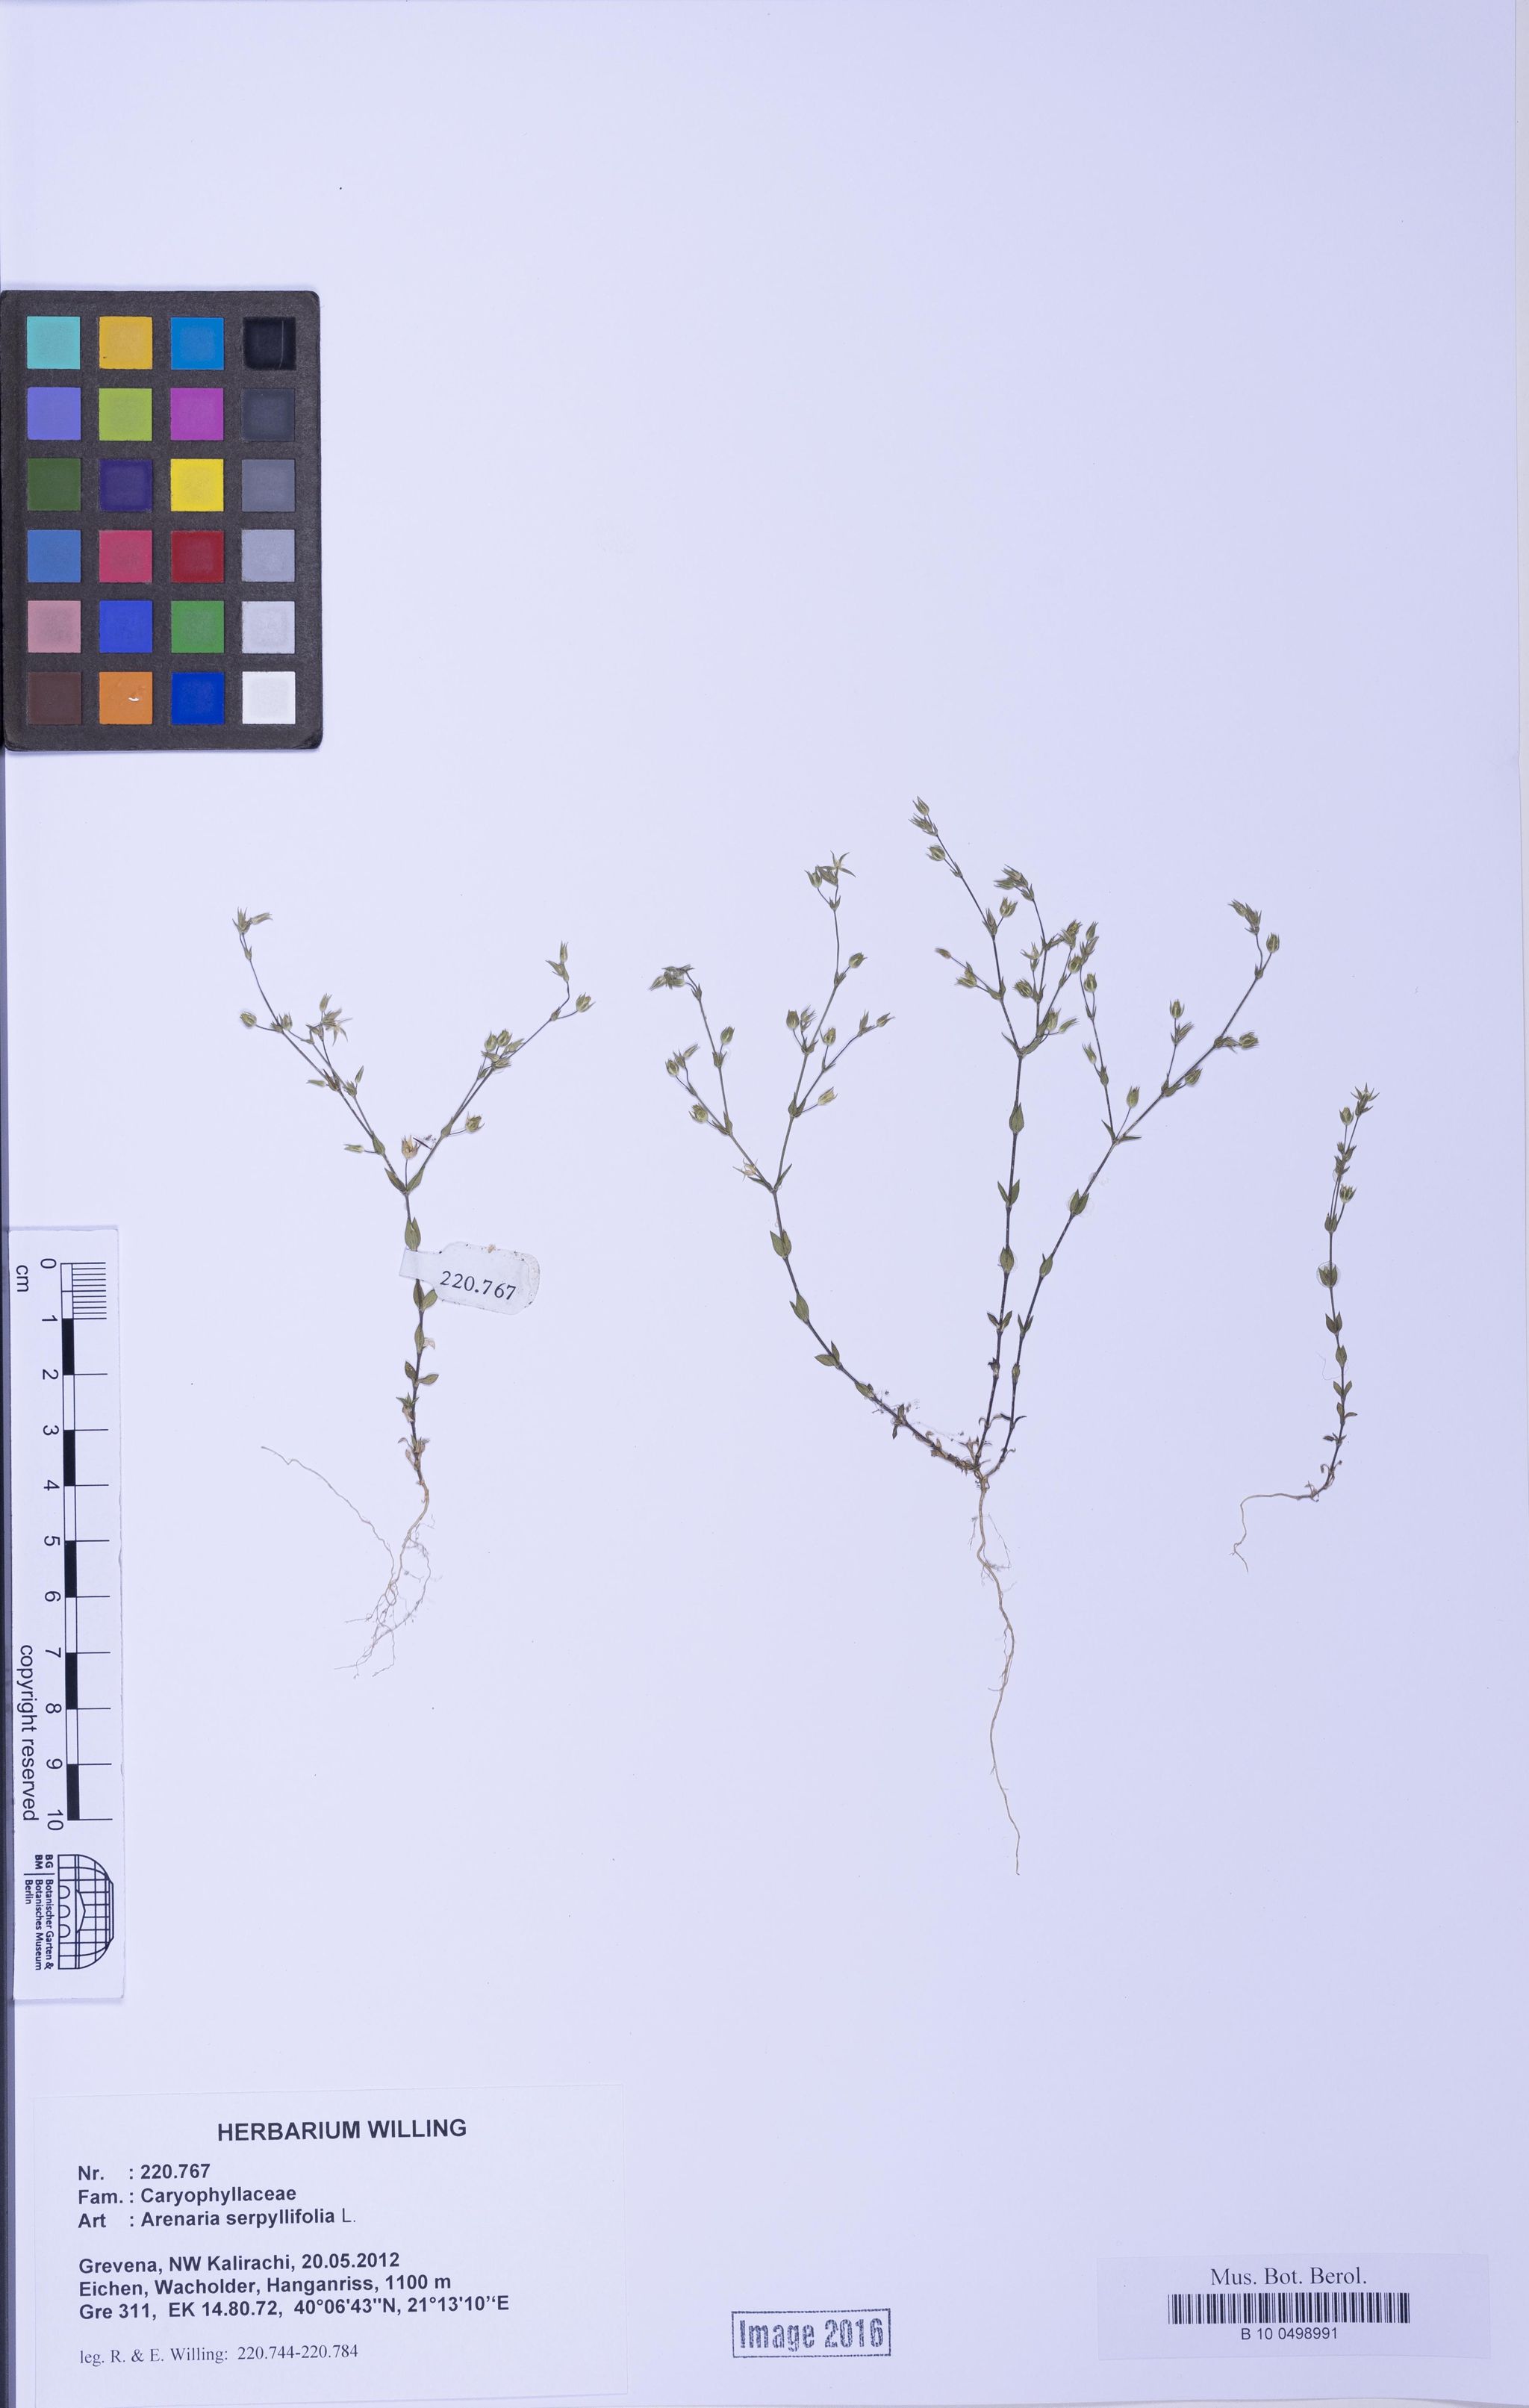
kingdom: Plantae
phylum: Tracheophyta
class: Magnoliopsida
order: Caryophyllales
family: Caryophyllaceae
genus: Arenaria
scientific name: Arenaria serpyllifolia
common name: Thyme-leaved sandwort
